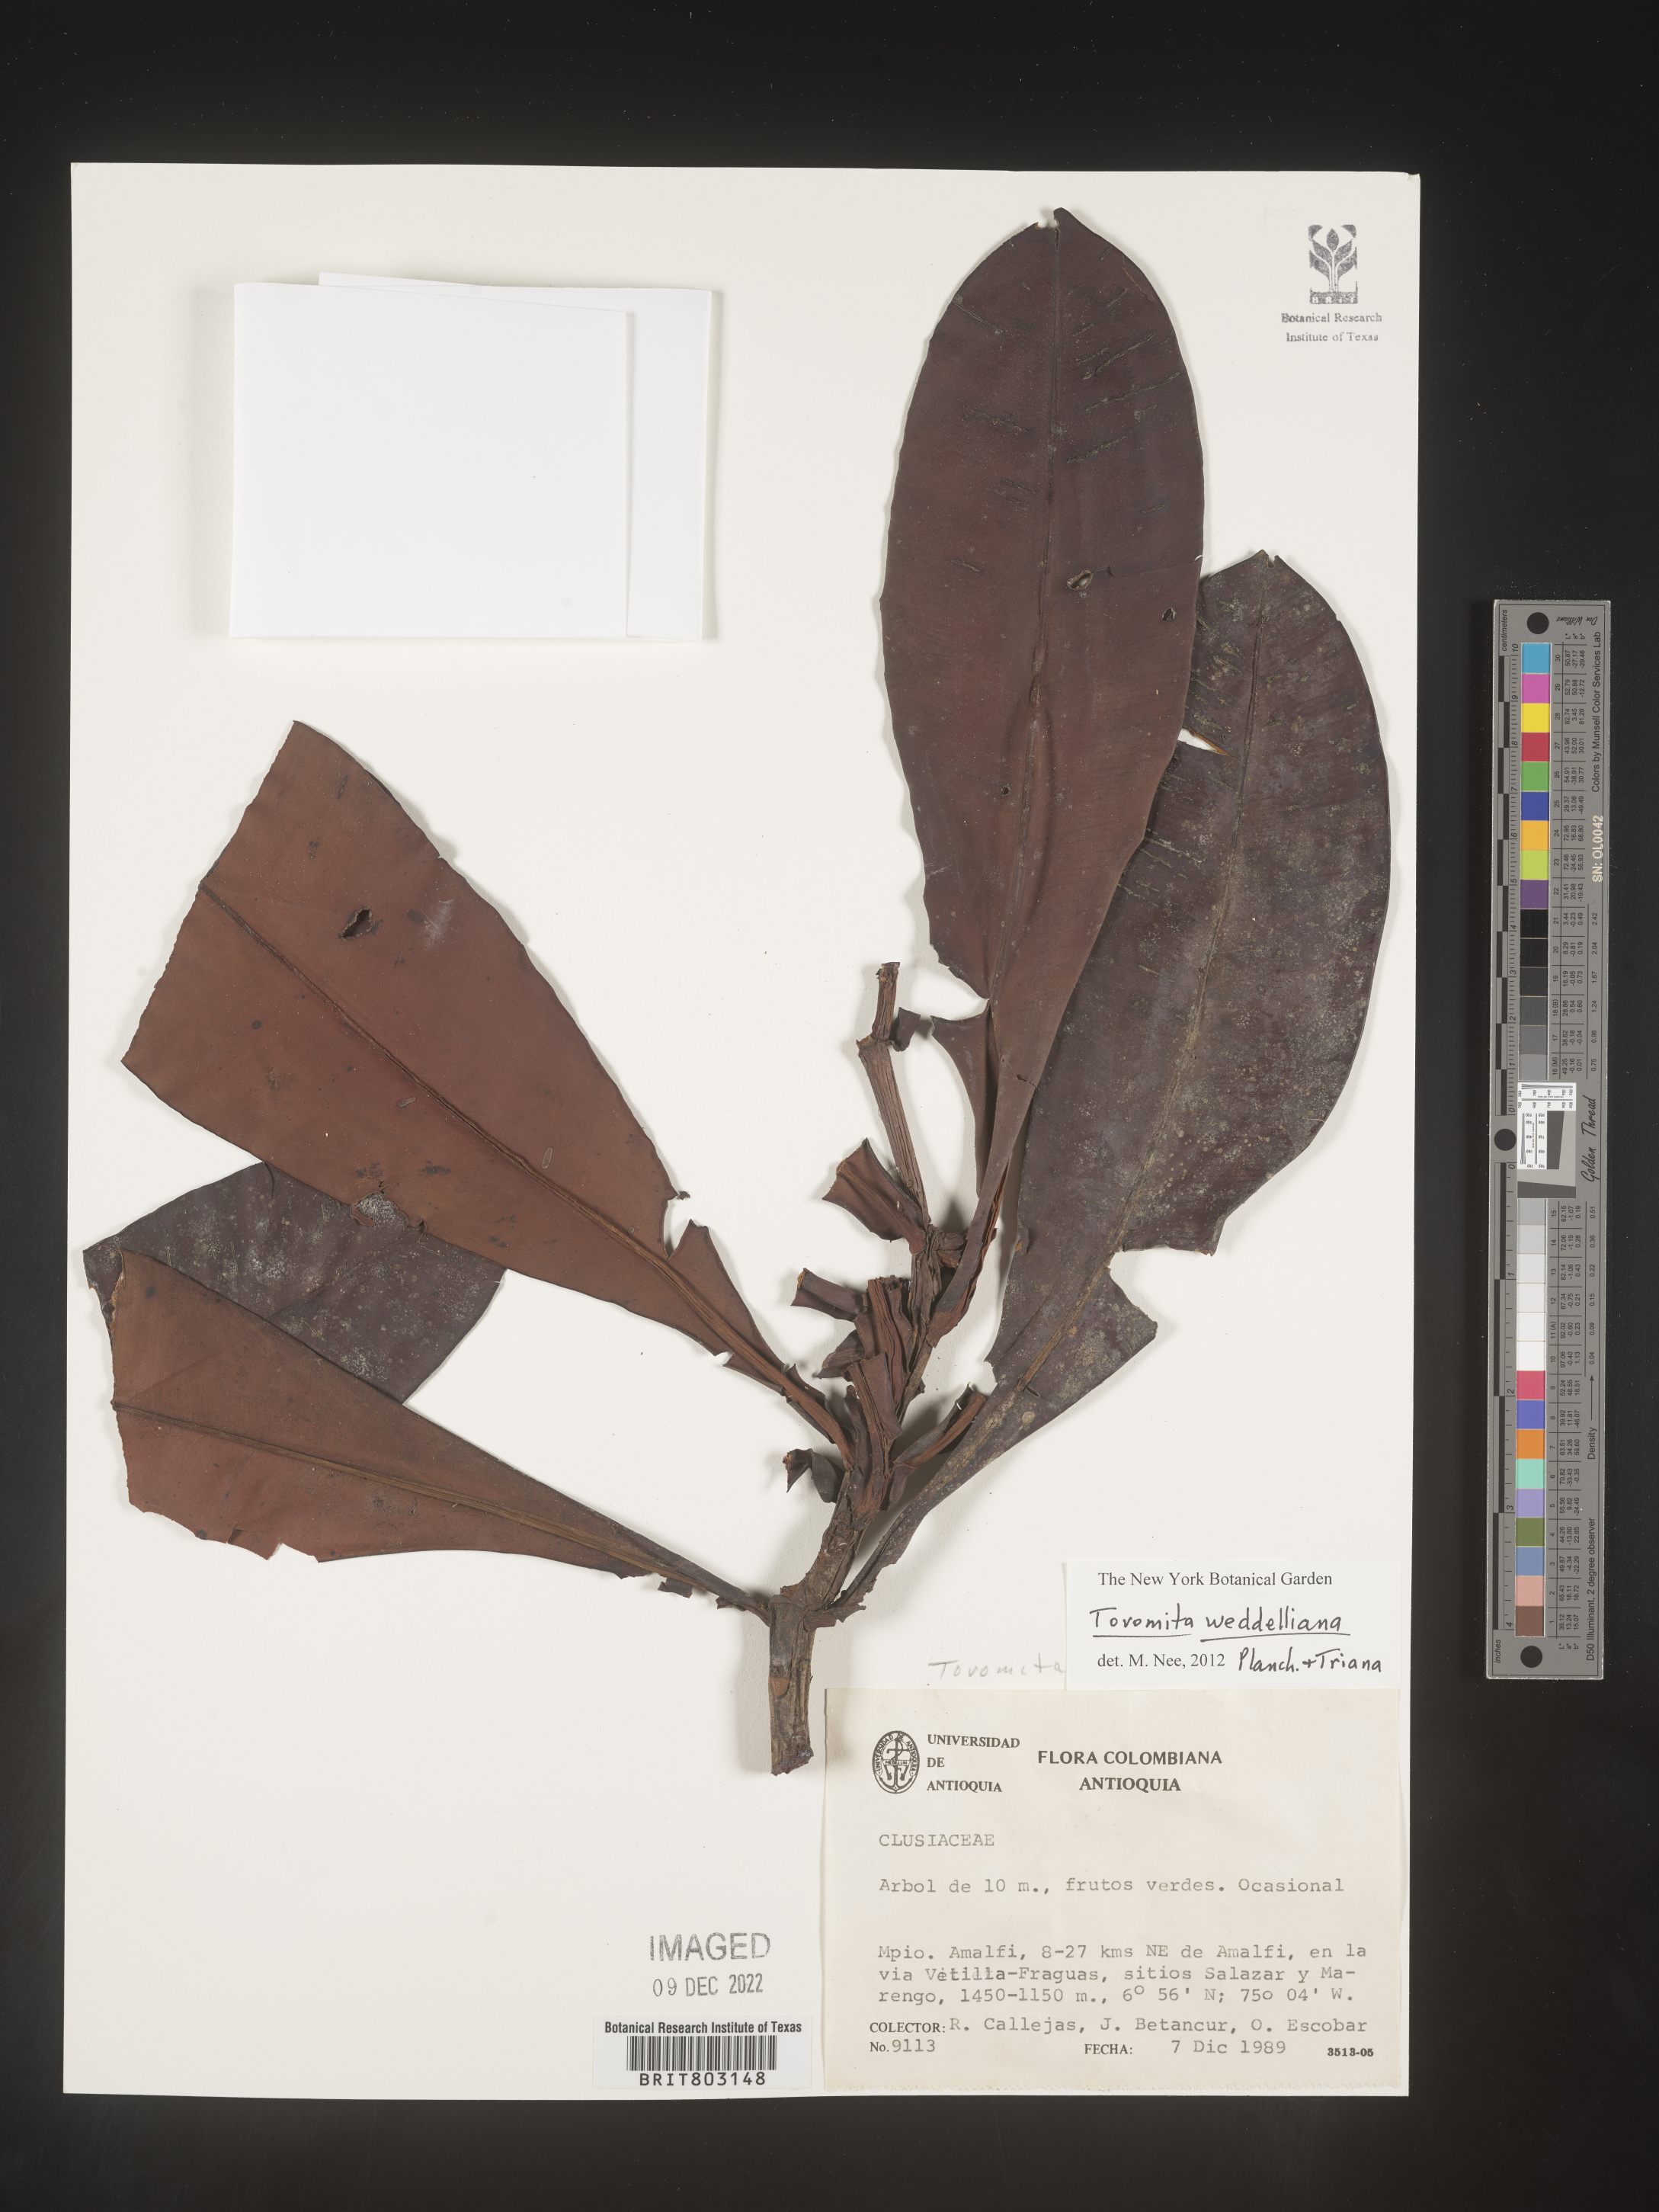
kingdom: Plantae
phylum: Tracheophyta
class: Magnoliopsida
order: Malpighiales
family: Clusiaceae
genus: Arawakia
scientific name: Arawakia weddelliana
